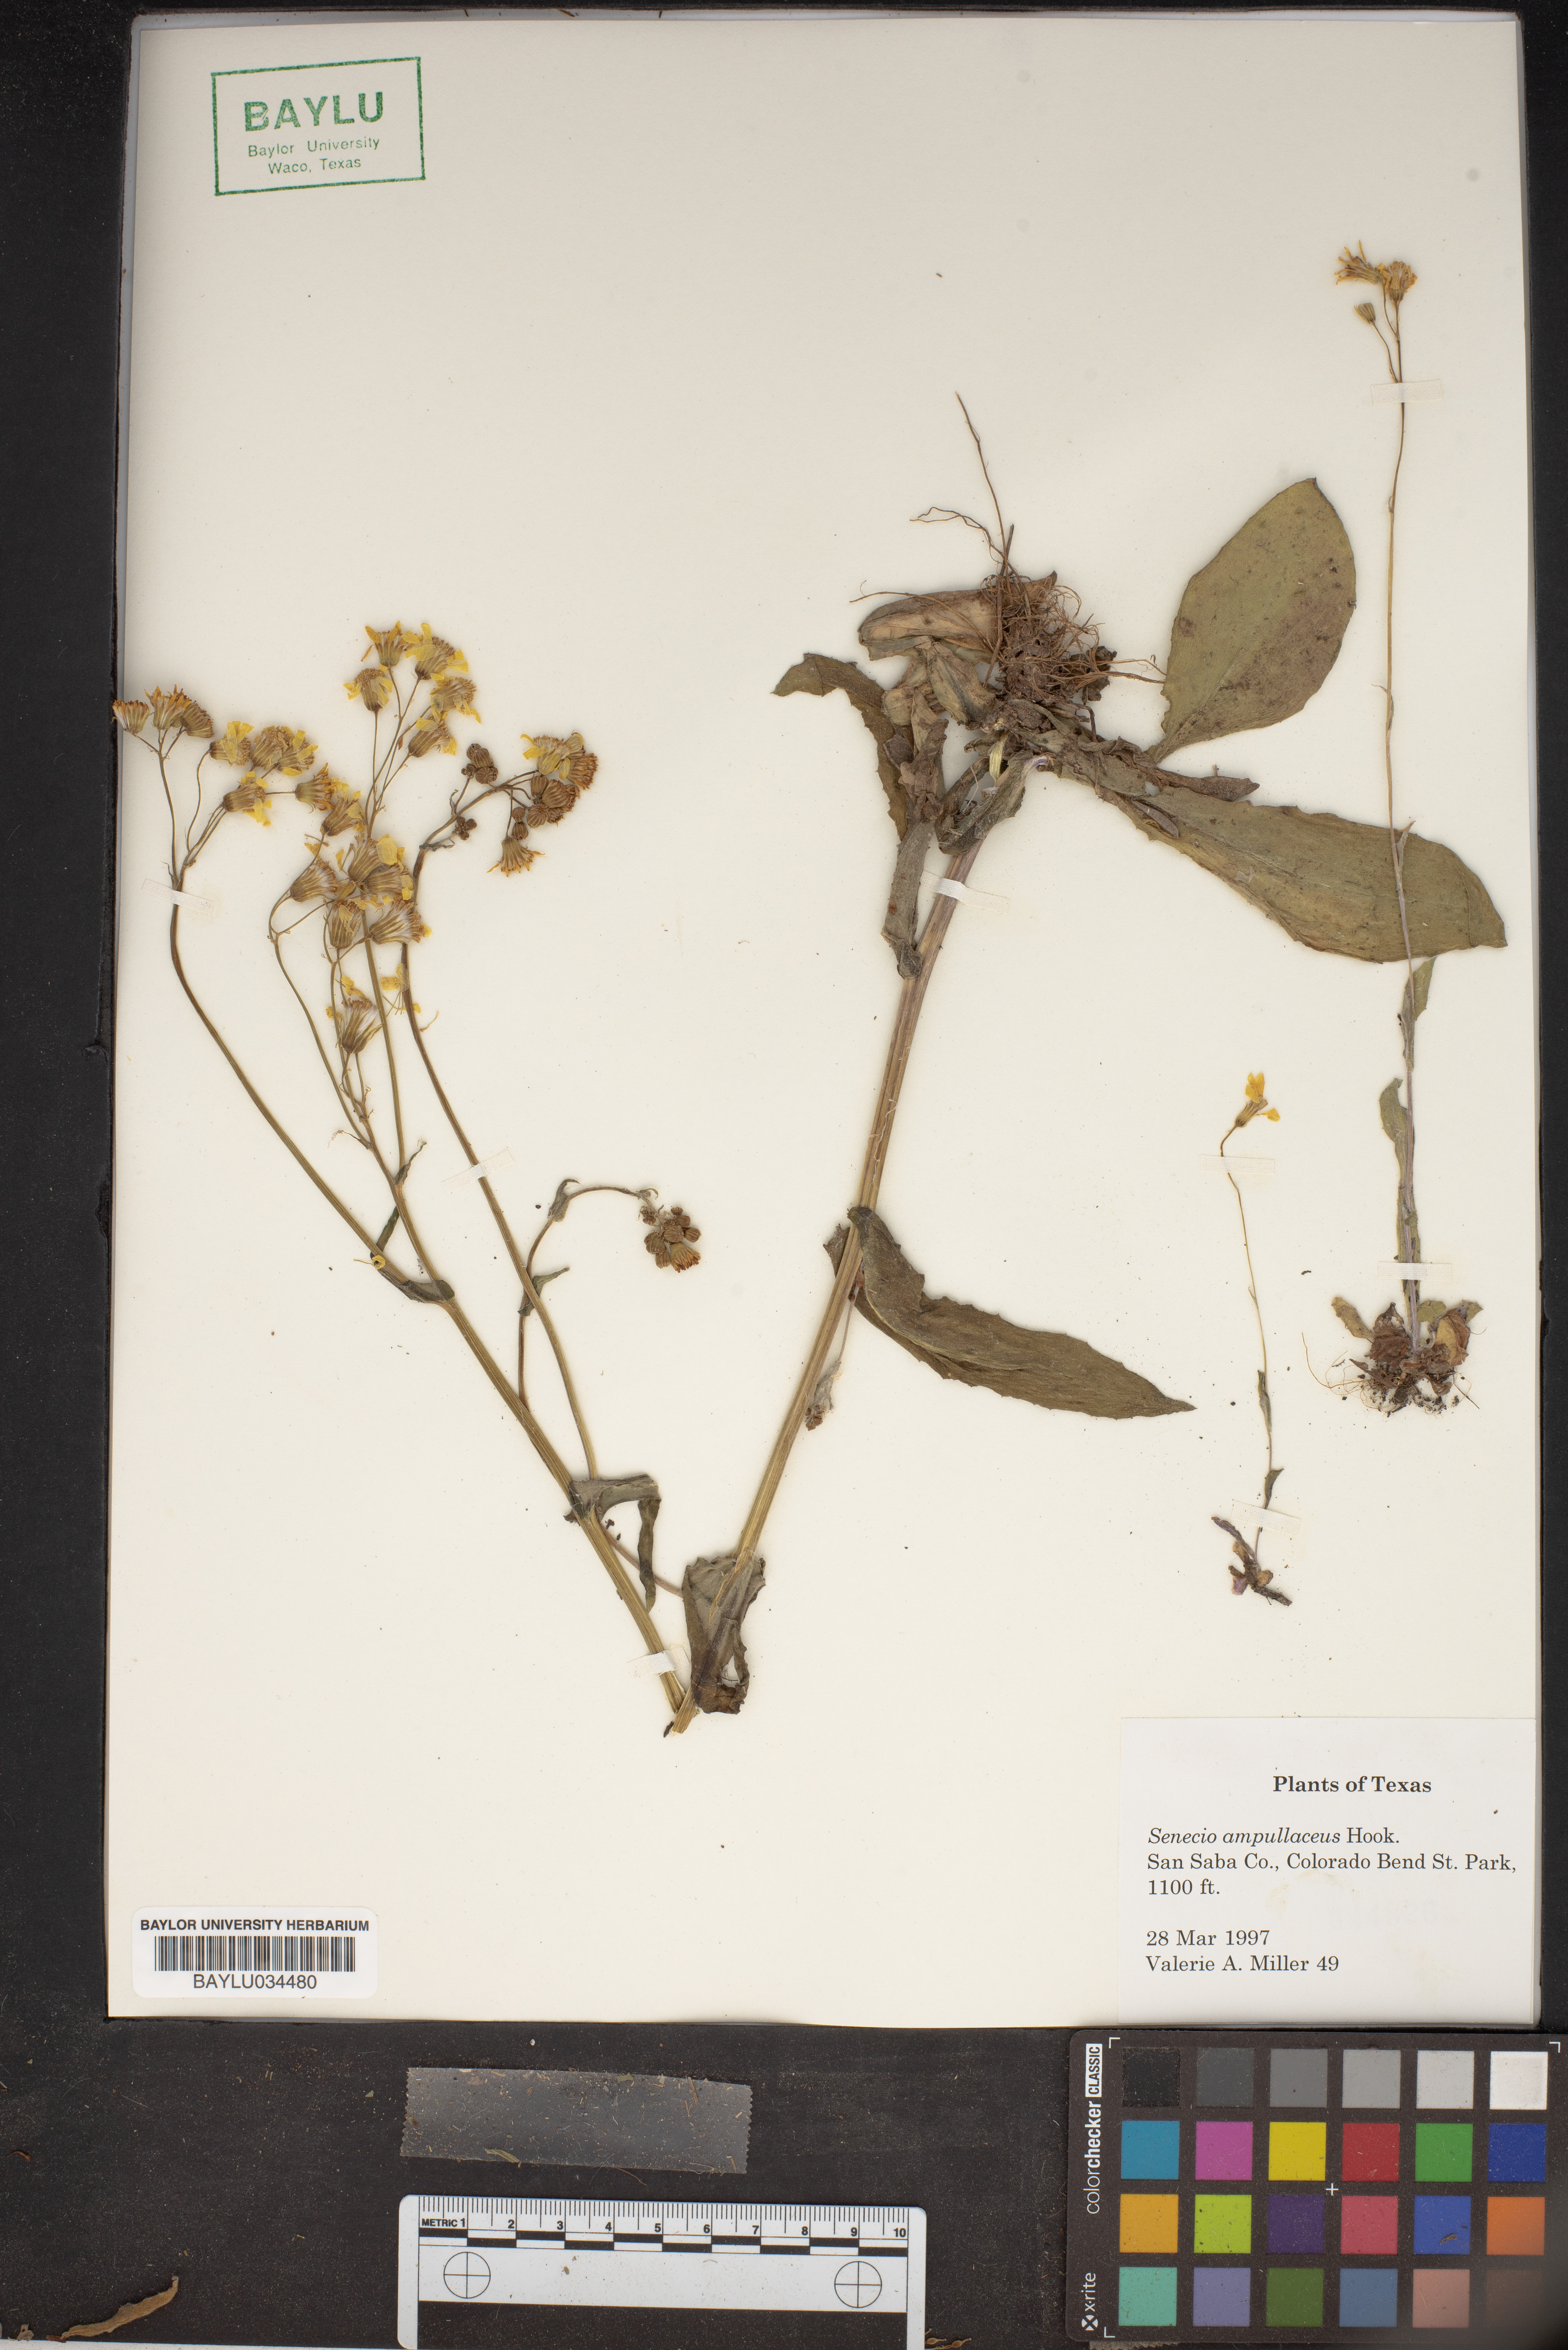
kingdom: Plantae
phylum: Tracheophyta
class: Magnoliopsida
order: Asterales
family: Asteraceae
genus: Senecio
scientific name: Senecio ampullaceus
